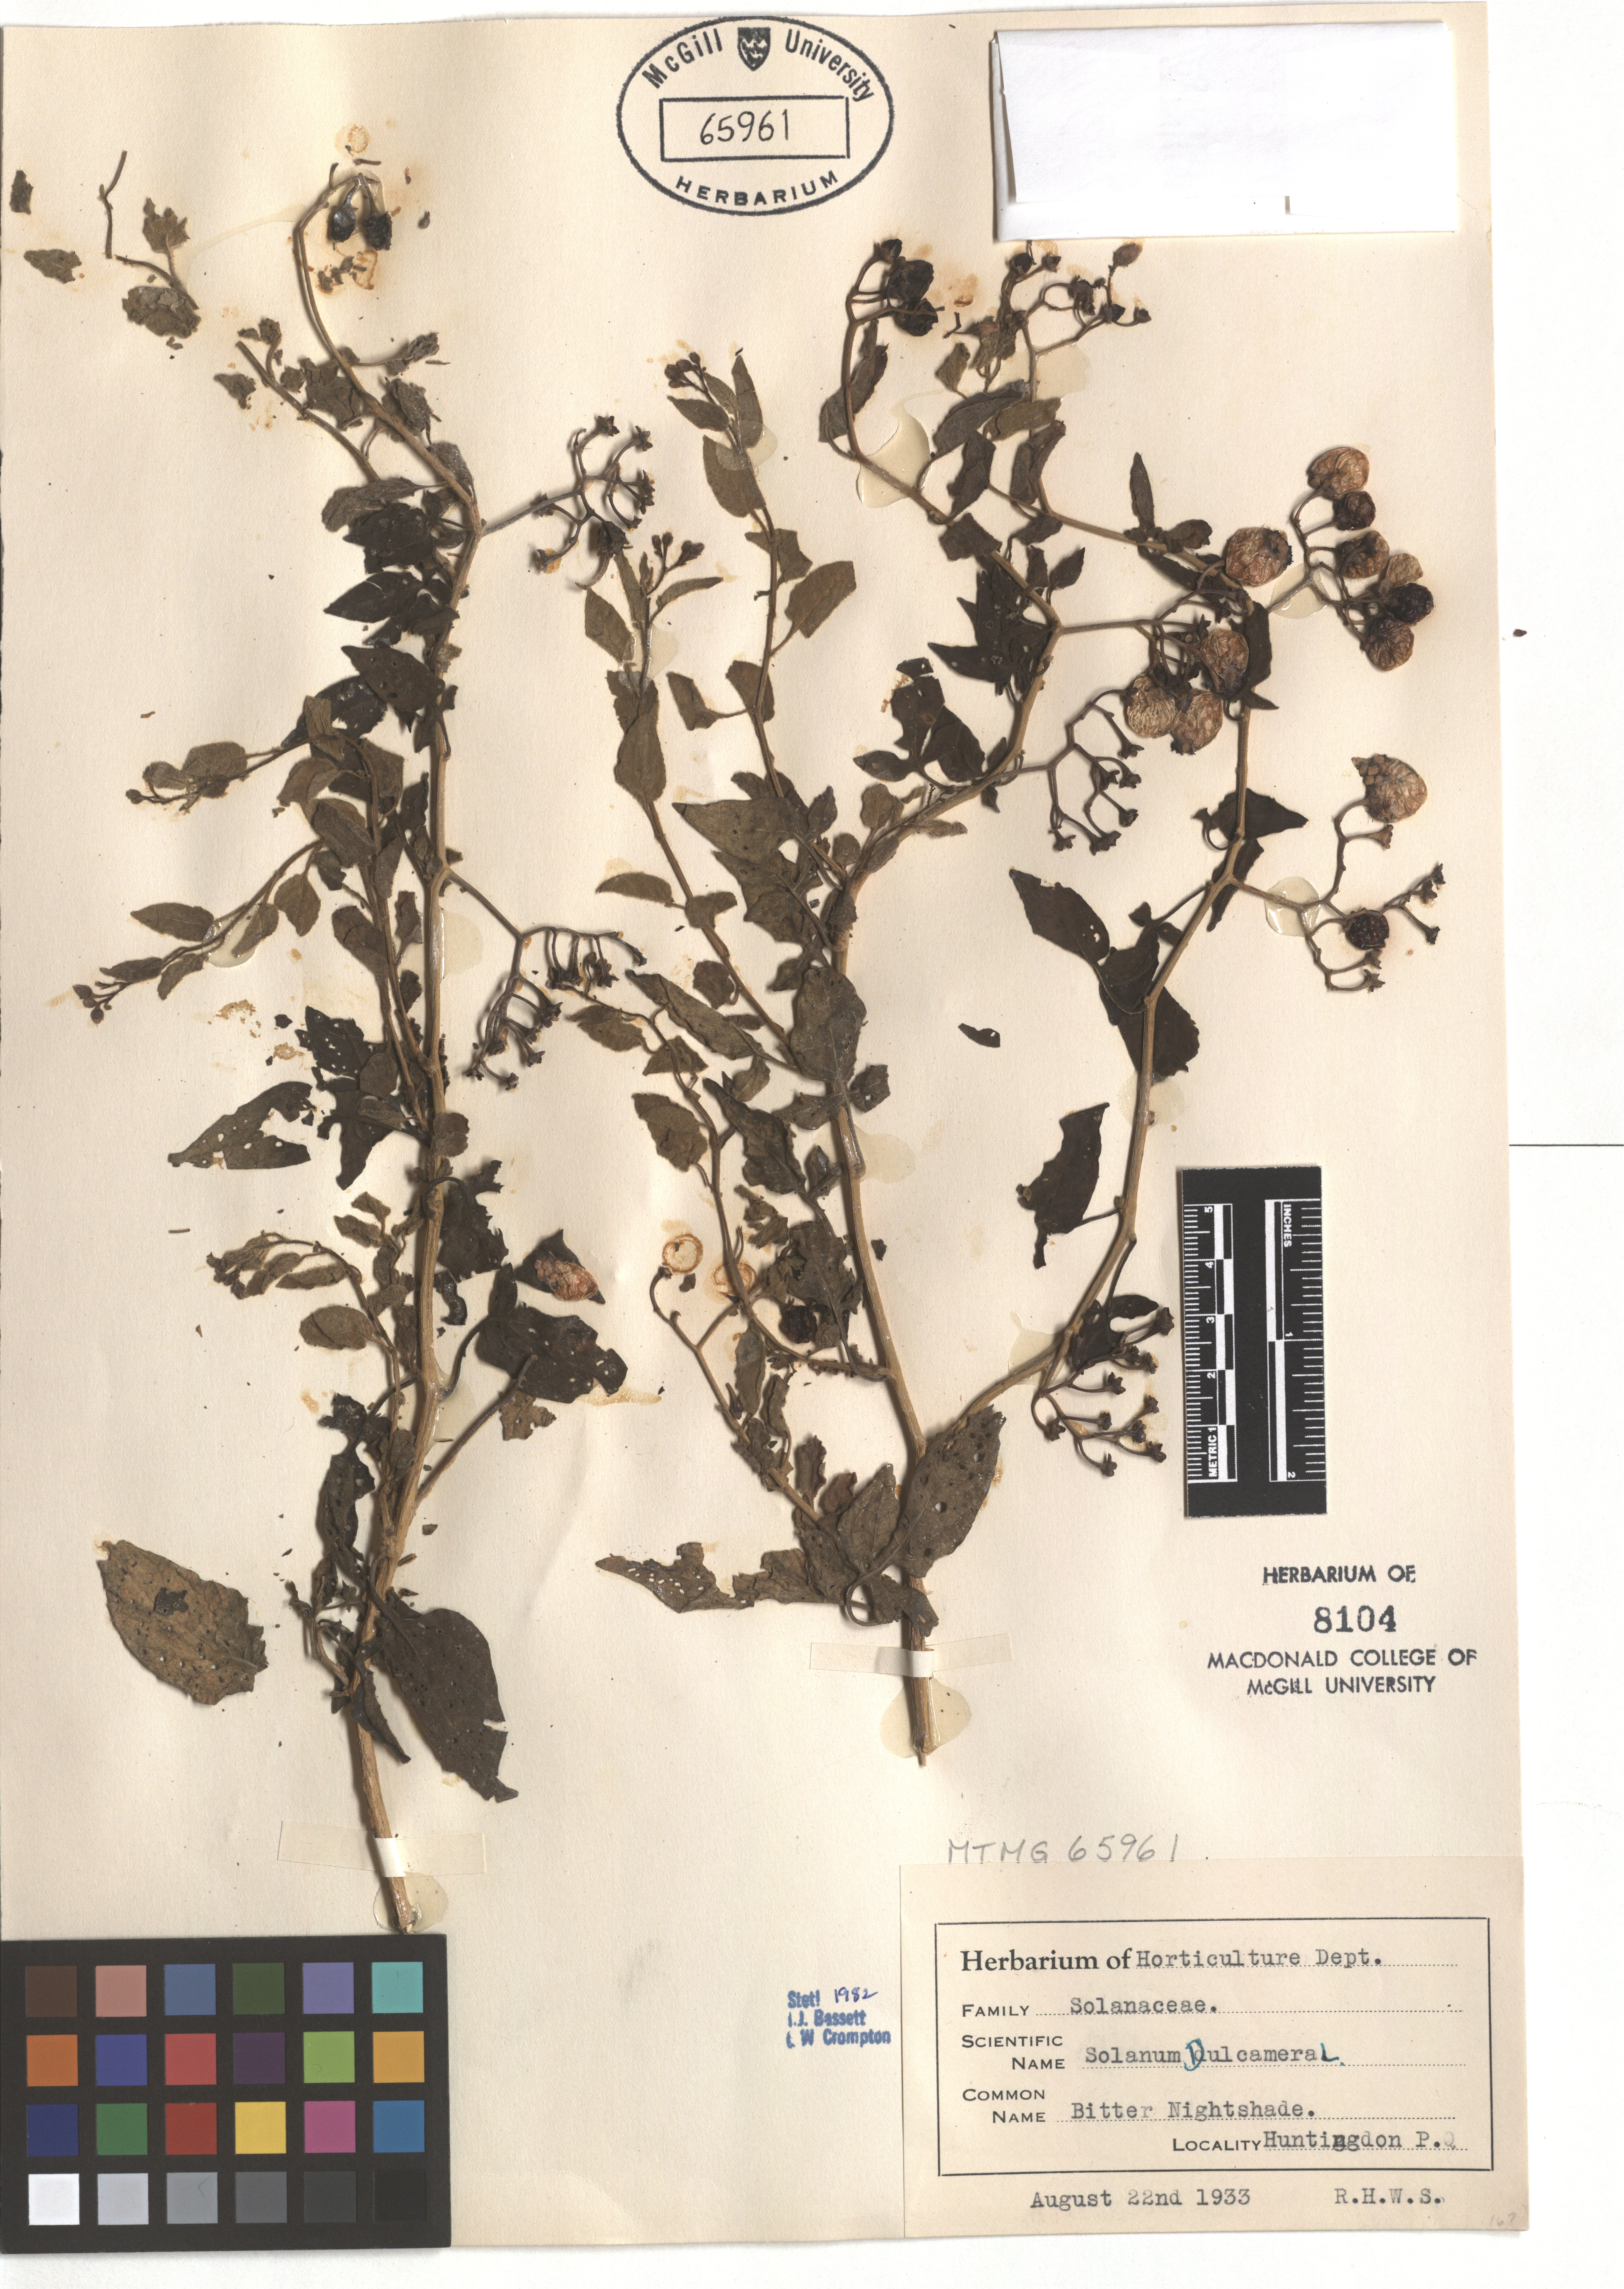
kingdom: Plantae
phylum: Tracheophyta
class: Magnoliopsida
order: Solanales
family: Solanaceae
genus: Solanum
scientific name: Solanum dulcamara
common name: Climbing nightshade
